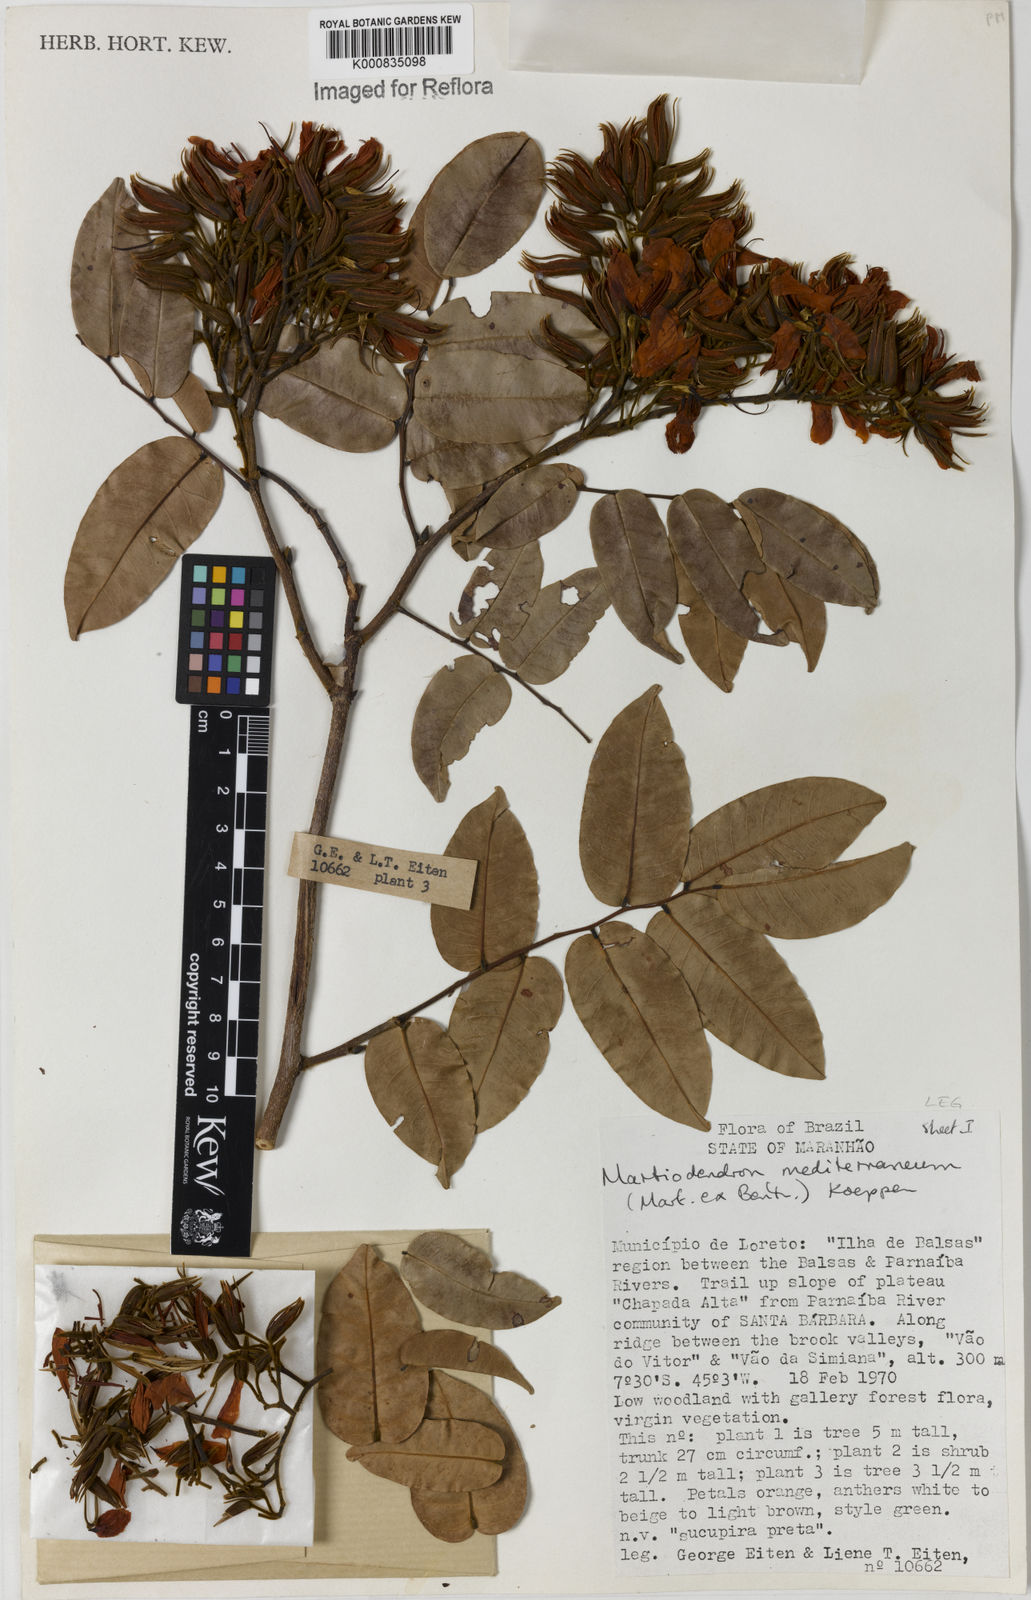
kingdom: Plantae
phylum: Tracheophyta
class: Magnoliopsida
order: Fabales
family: Fabaceae
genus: Martiodendron
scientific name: Martiodendron
